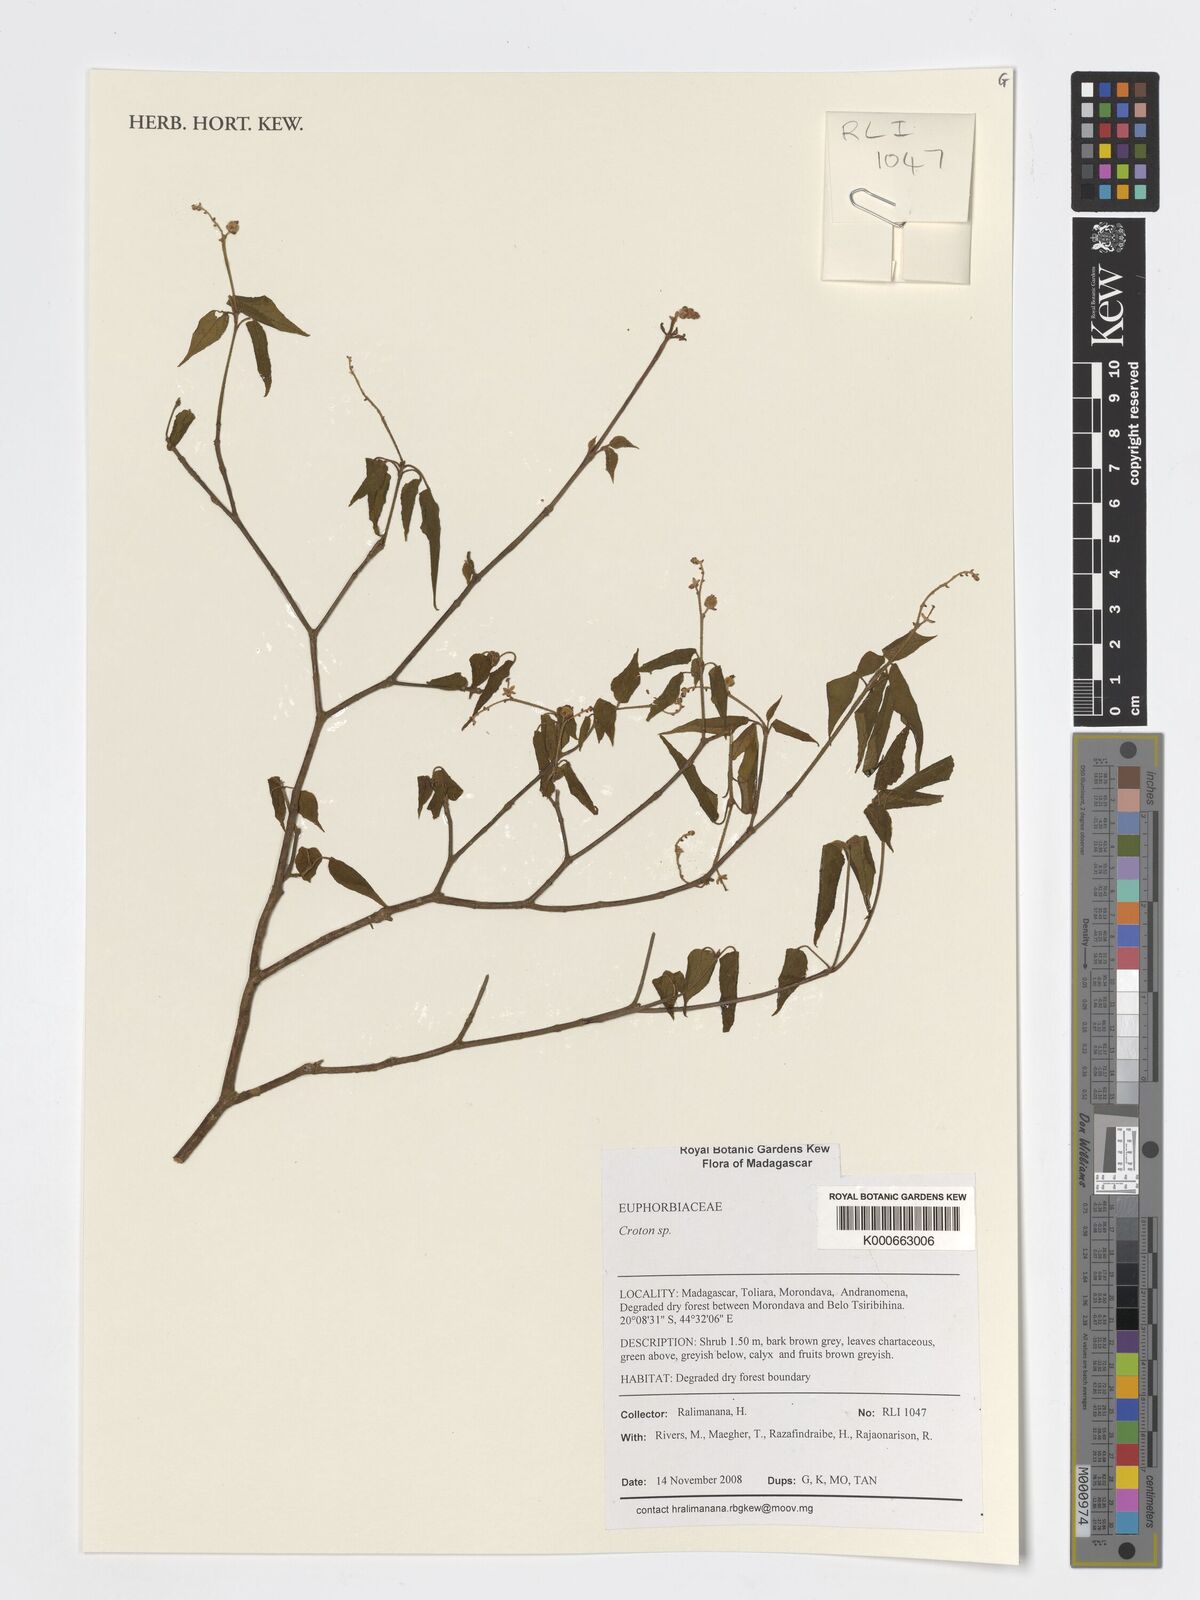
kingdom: Plantae
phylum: Tracheophyta
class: Magnoliopsida
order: Malpighiales
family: Euphorbiaceae
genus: Croton
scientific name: Croton
